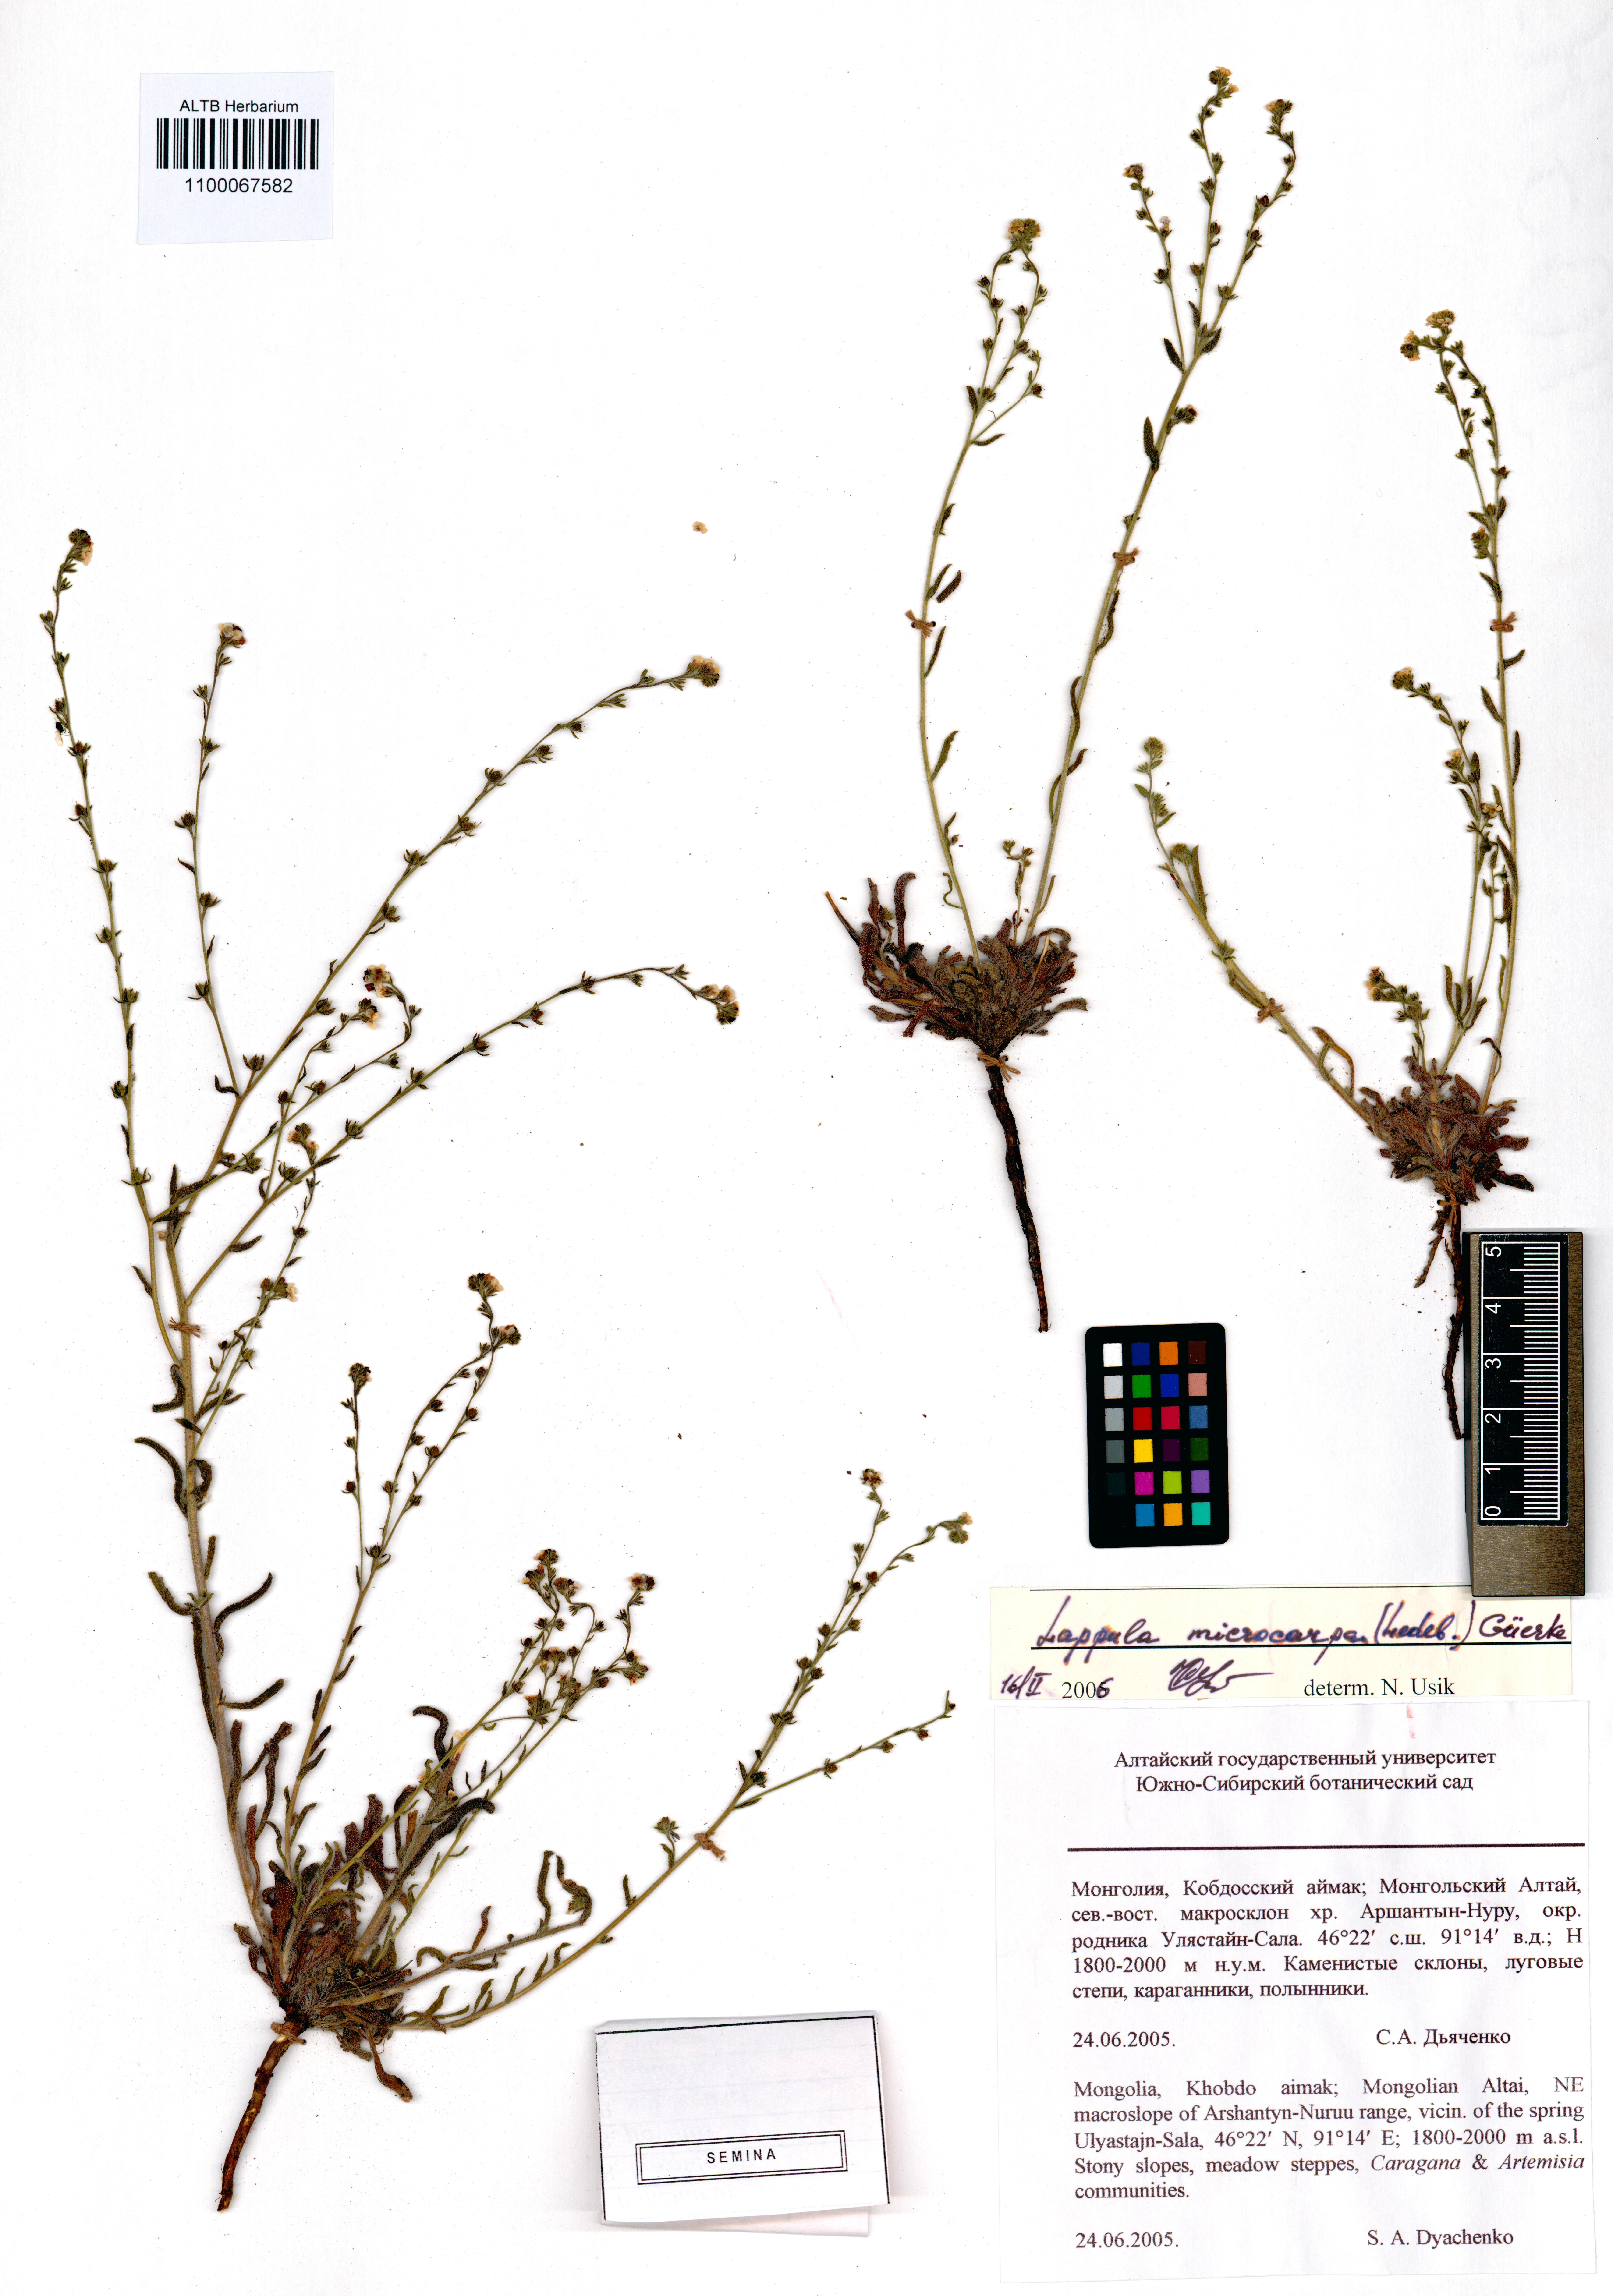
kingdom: Plantae
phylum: Tracheophyta
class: Magnoliopsida
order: Boraginales
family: Boraginaceae
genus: Lappula
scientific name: Lappula microcarpa
